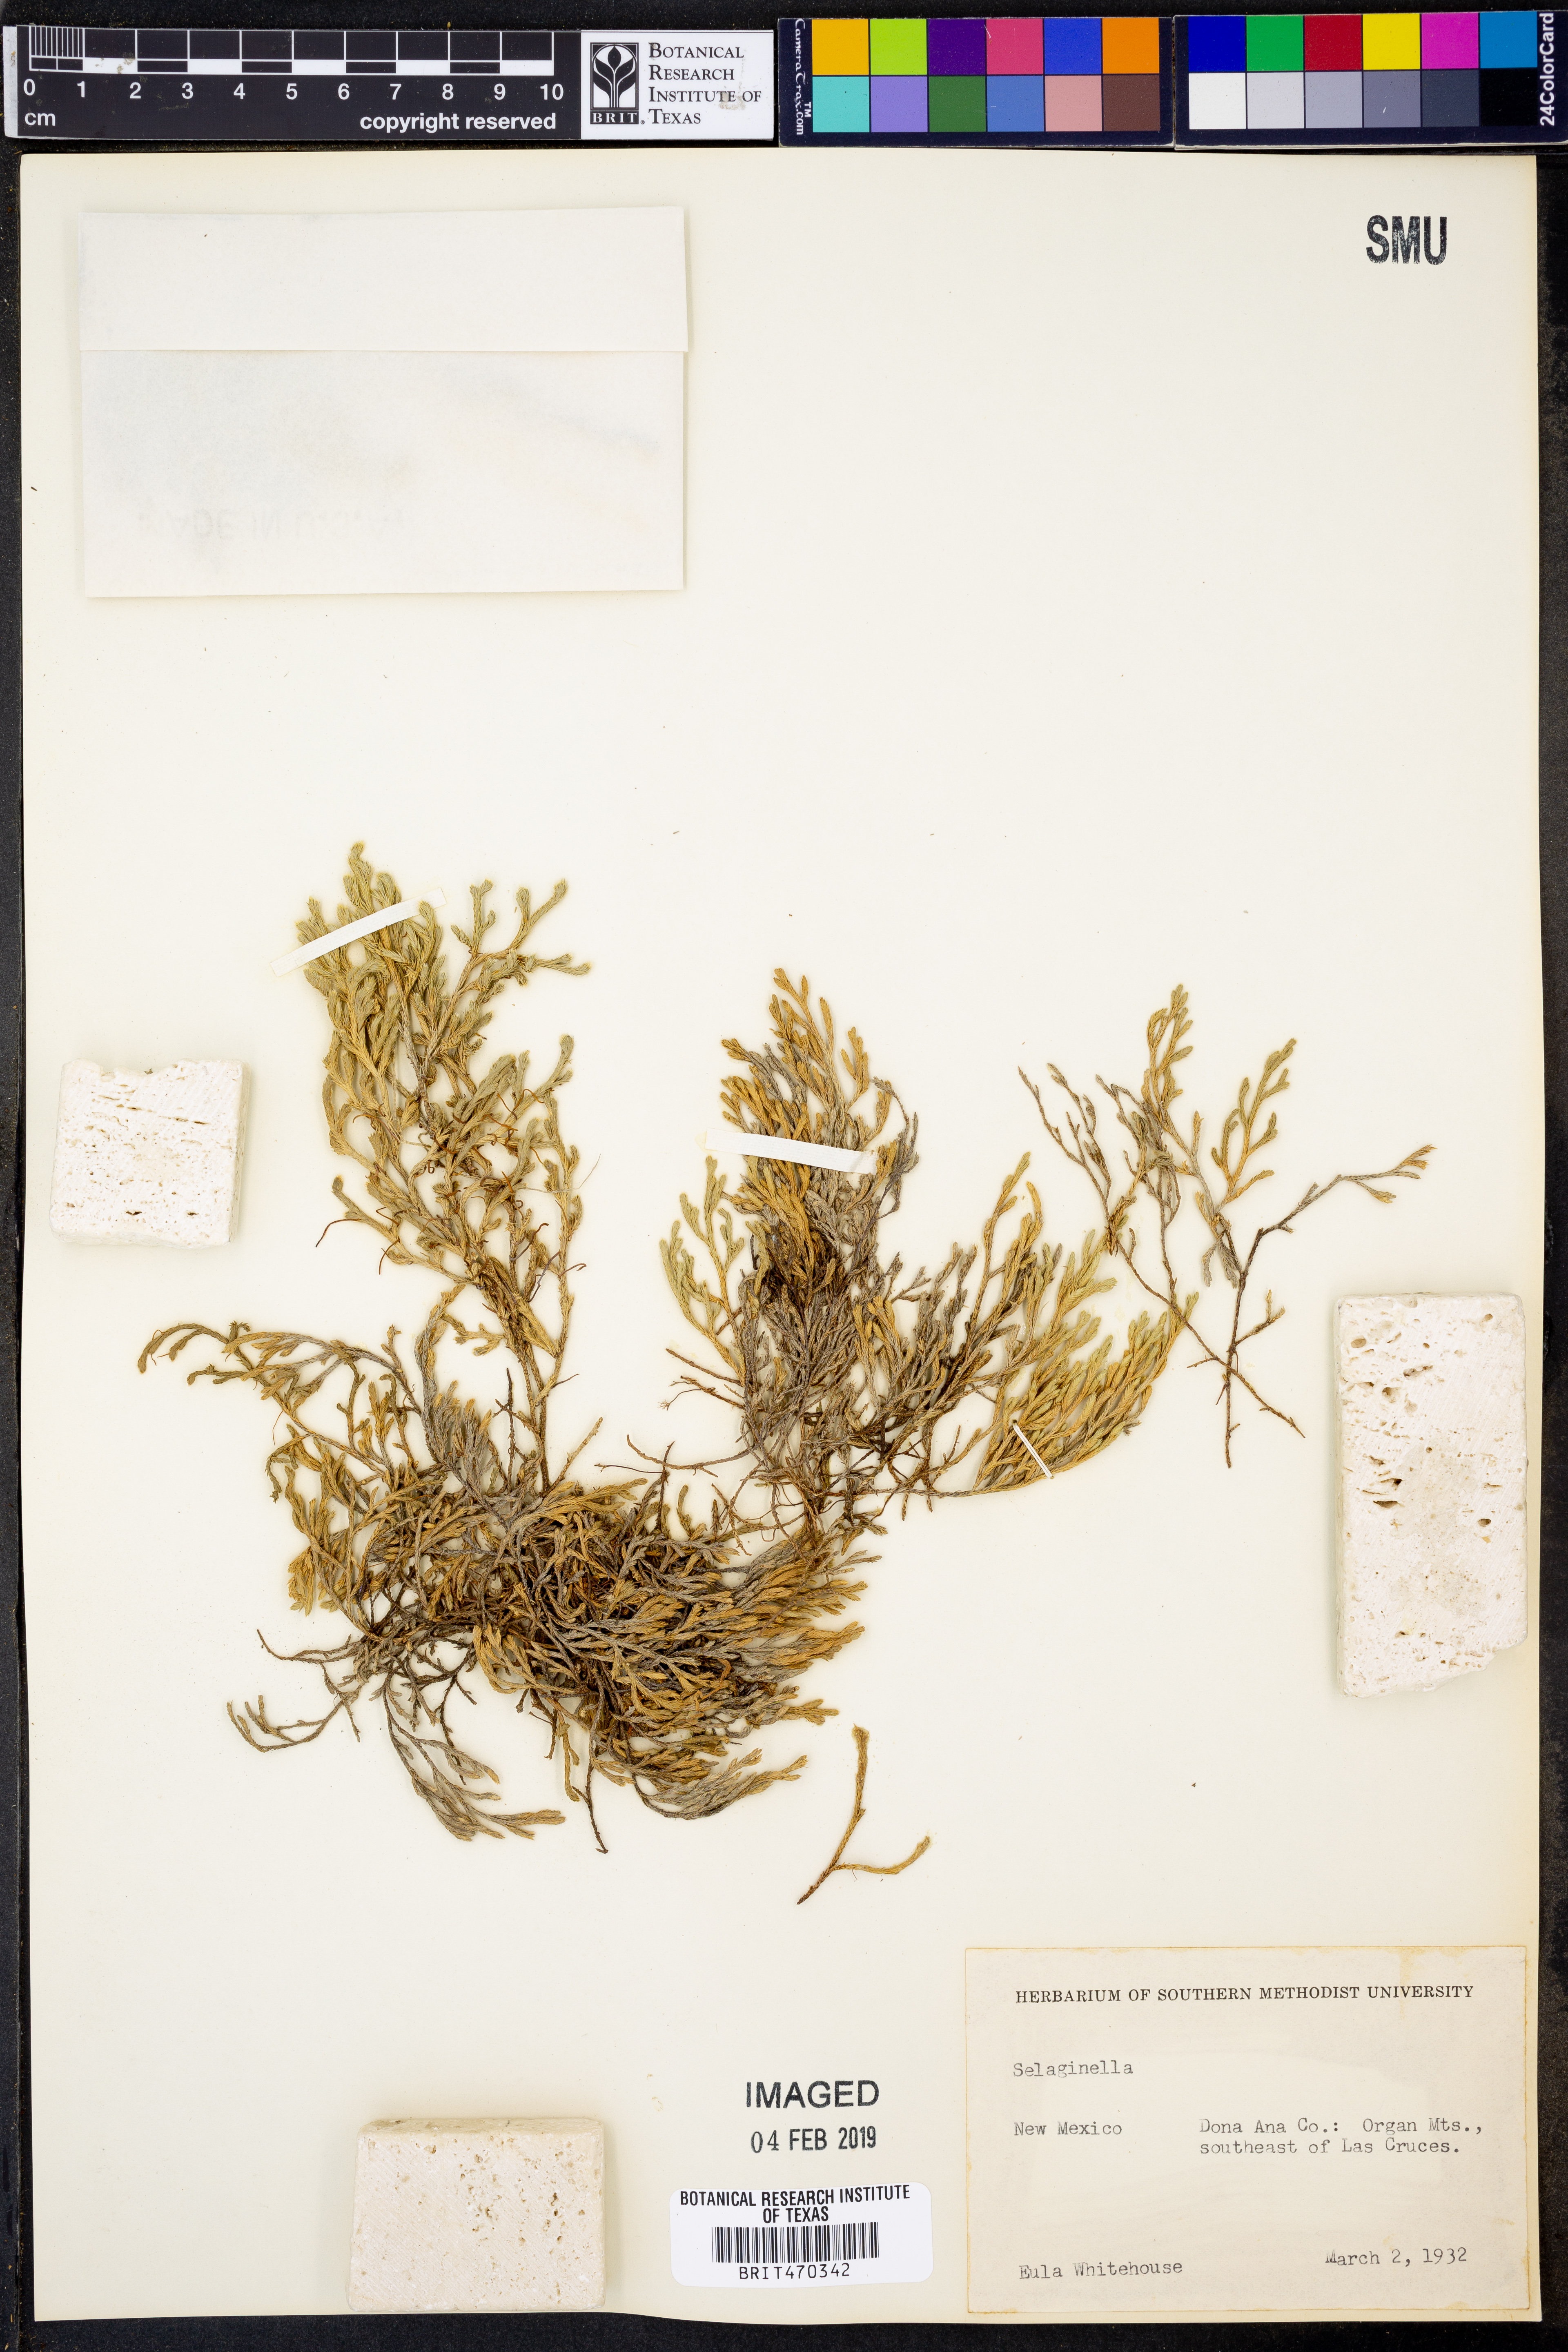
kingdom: Plantae
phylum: Tracheophyta
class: Lycopodiopsida
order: Selaginellales
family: Selaginellaceae
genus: Selaginella
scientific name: Selaginella
